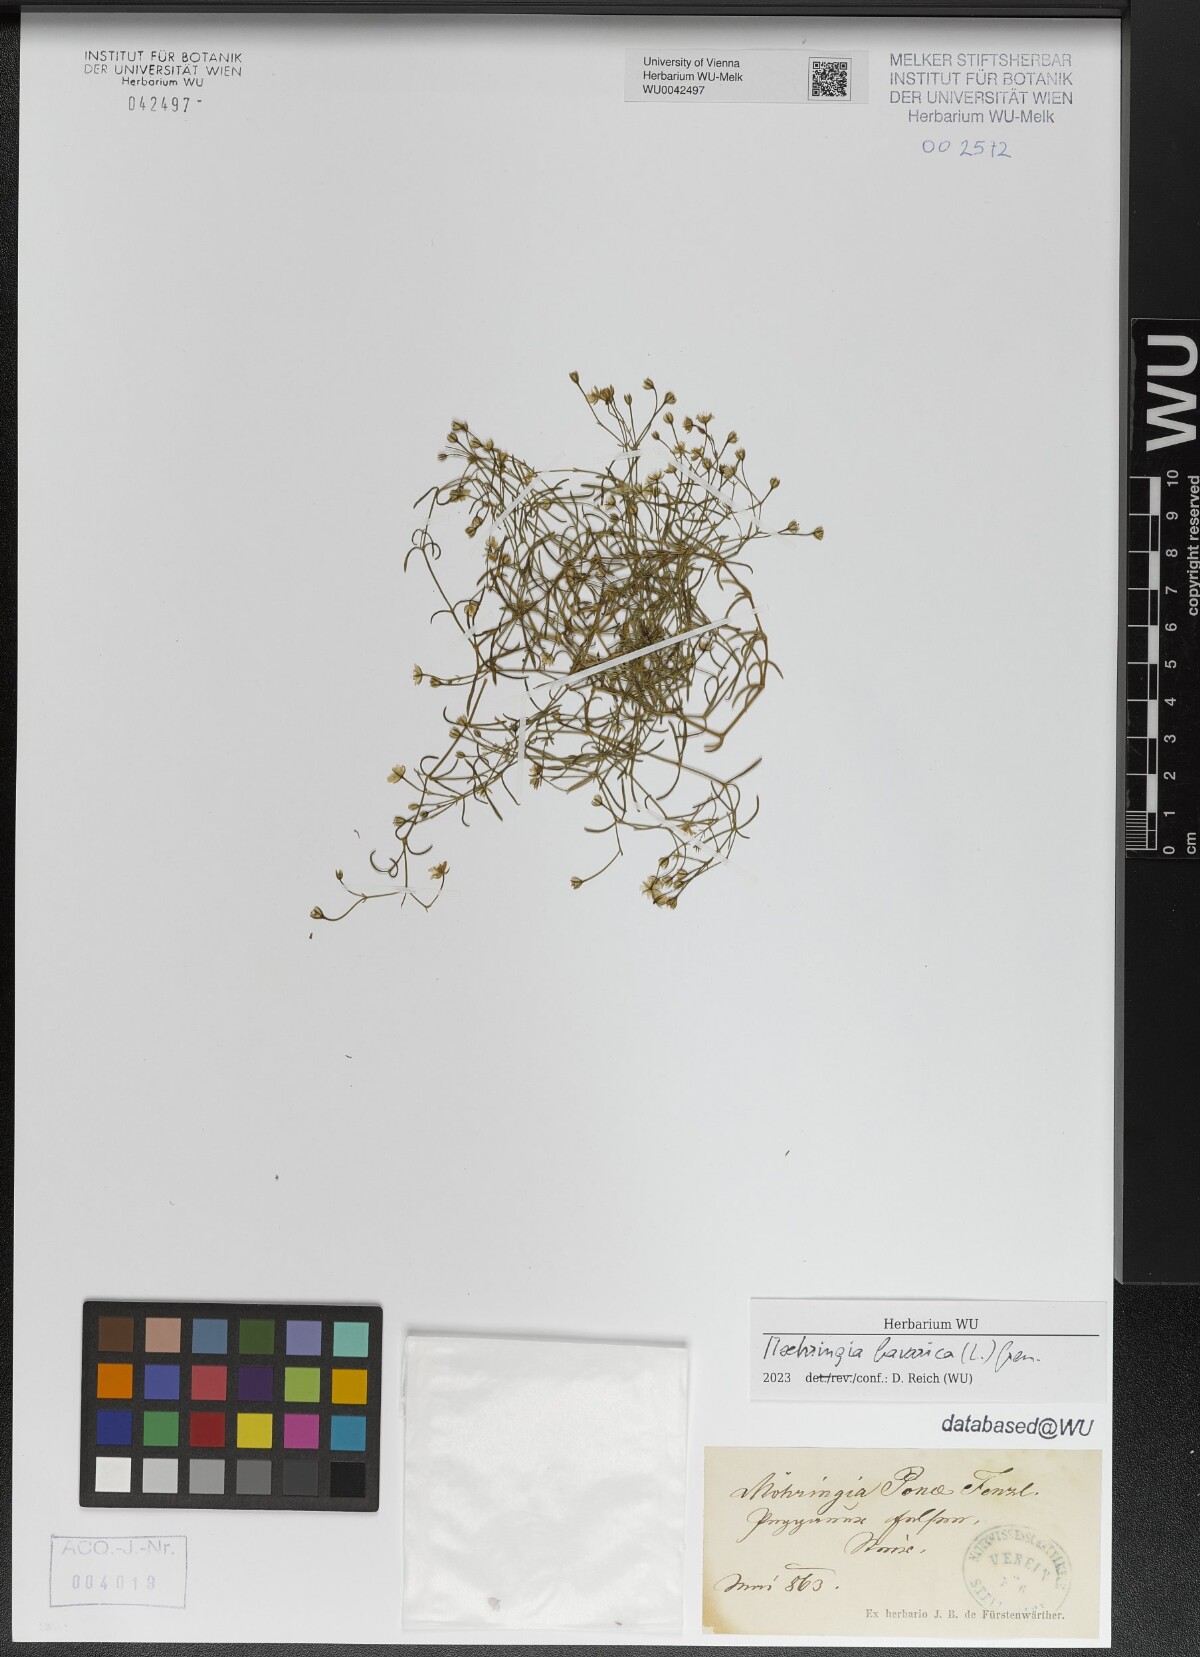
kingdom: Plantae
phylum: Tracheophyta
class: Magnoliopsida
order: Caryophyllales
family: Caryophyllaceae
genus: Moehringia
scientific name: Moehringia bavarica
